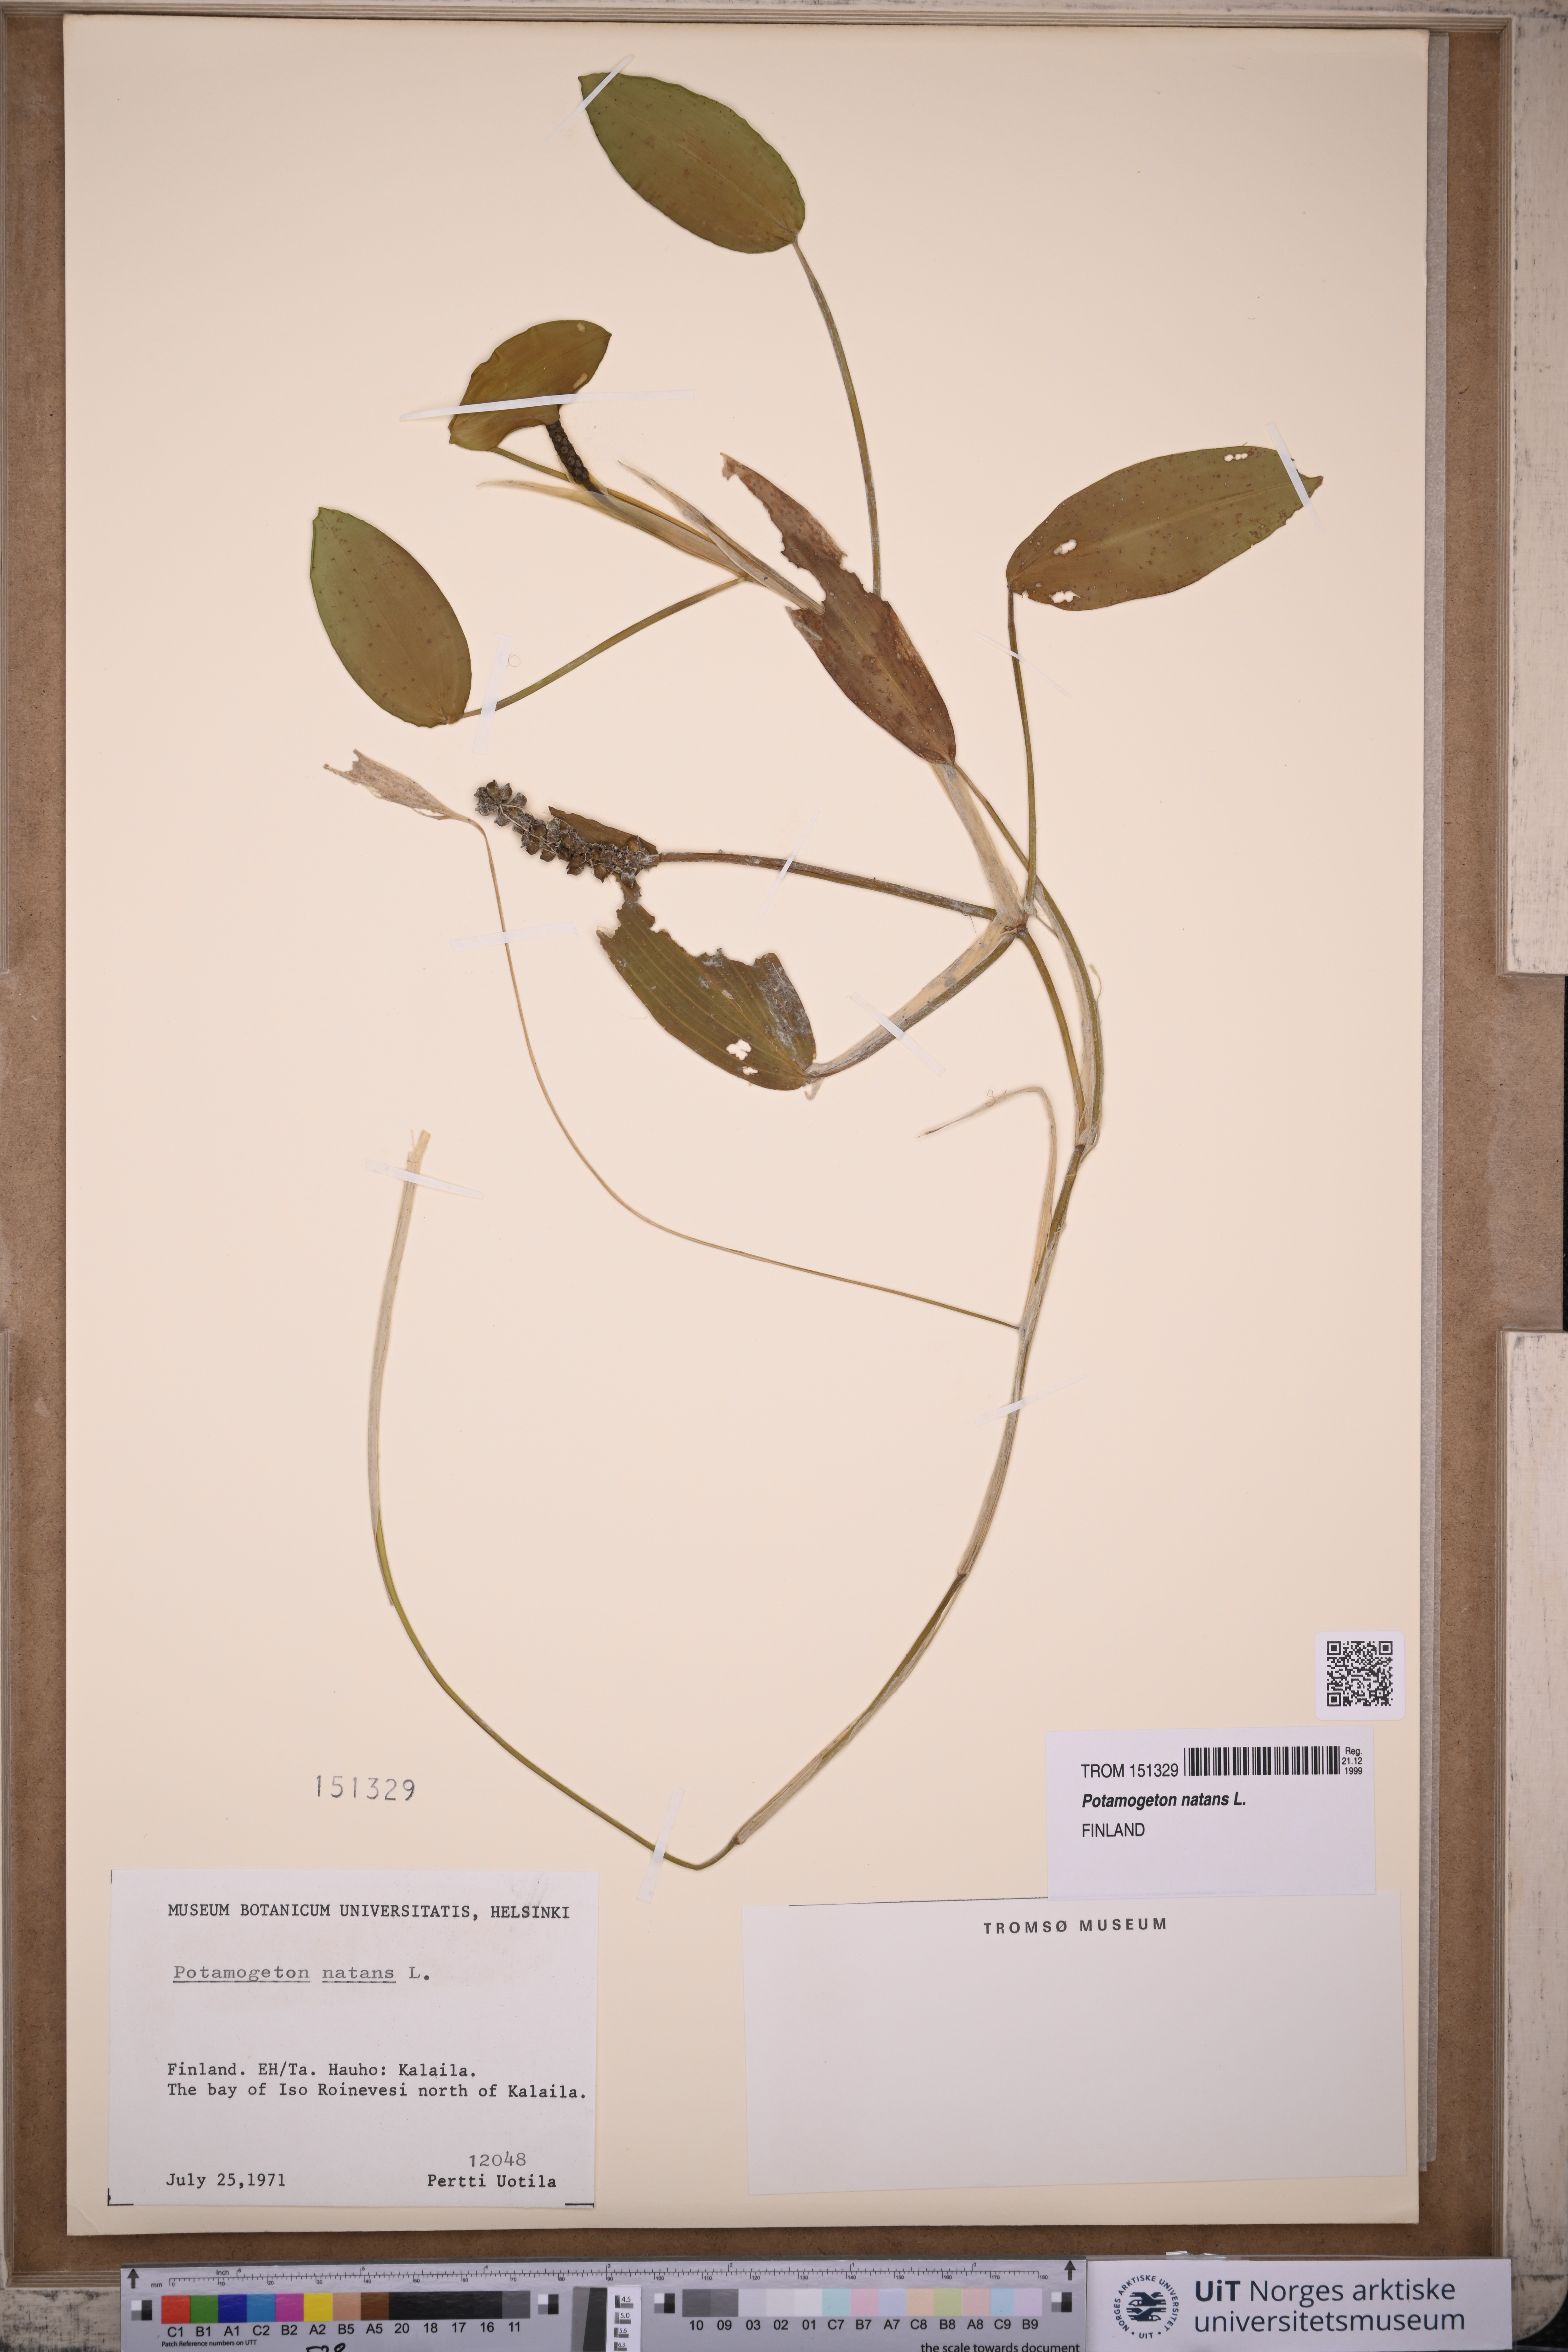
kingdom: Plantae
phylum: Tracheophyta
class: Liliopsida
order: Alismatales
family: Potamogetonaceae
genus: Potamogeton
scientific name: Potamogeton natans
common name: Broad-leaved pondweed
